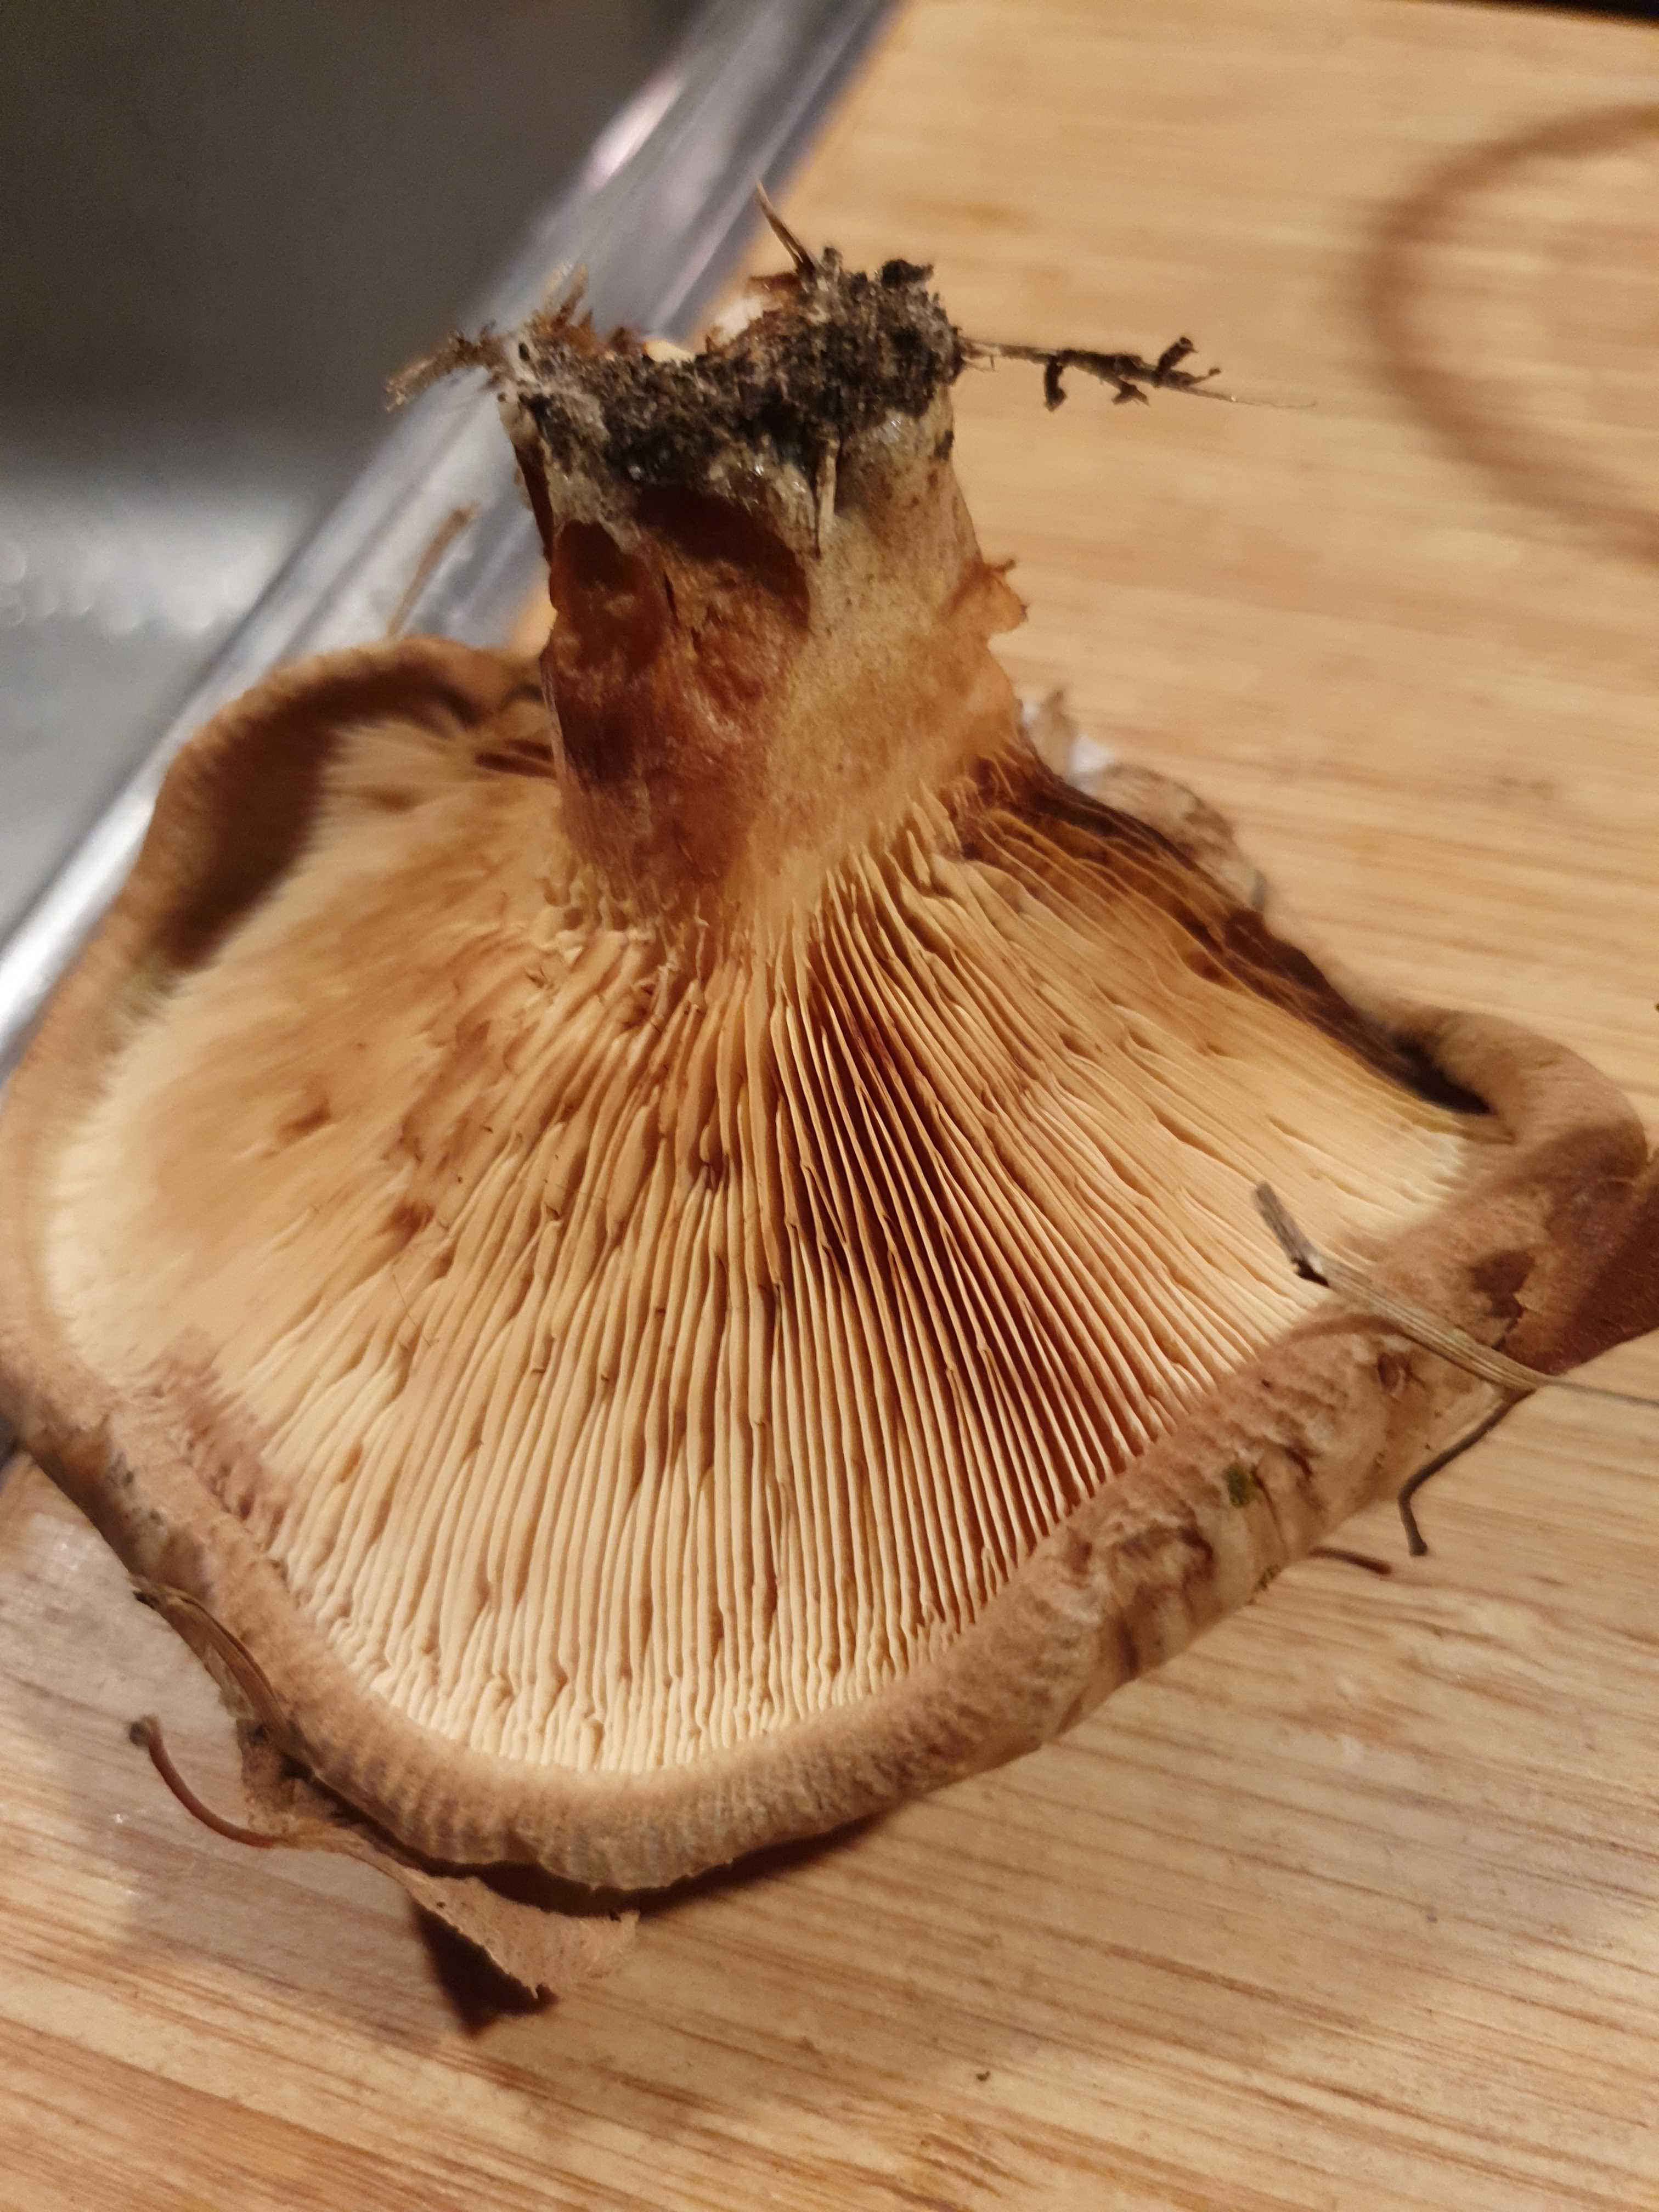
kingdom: Fungi
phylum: Basidiomycota
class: Agaricomycetes
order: Boletales
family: Paxillaceae
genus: Paxillus
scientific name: Paxillus
